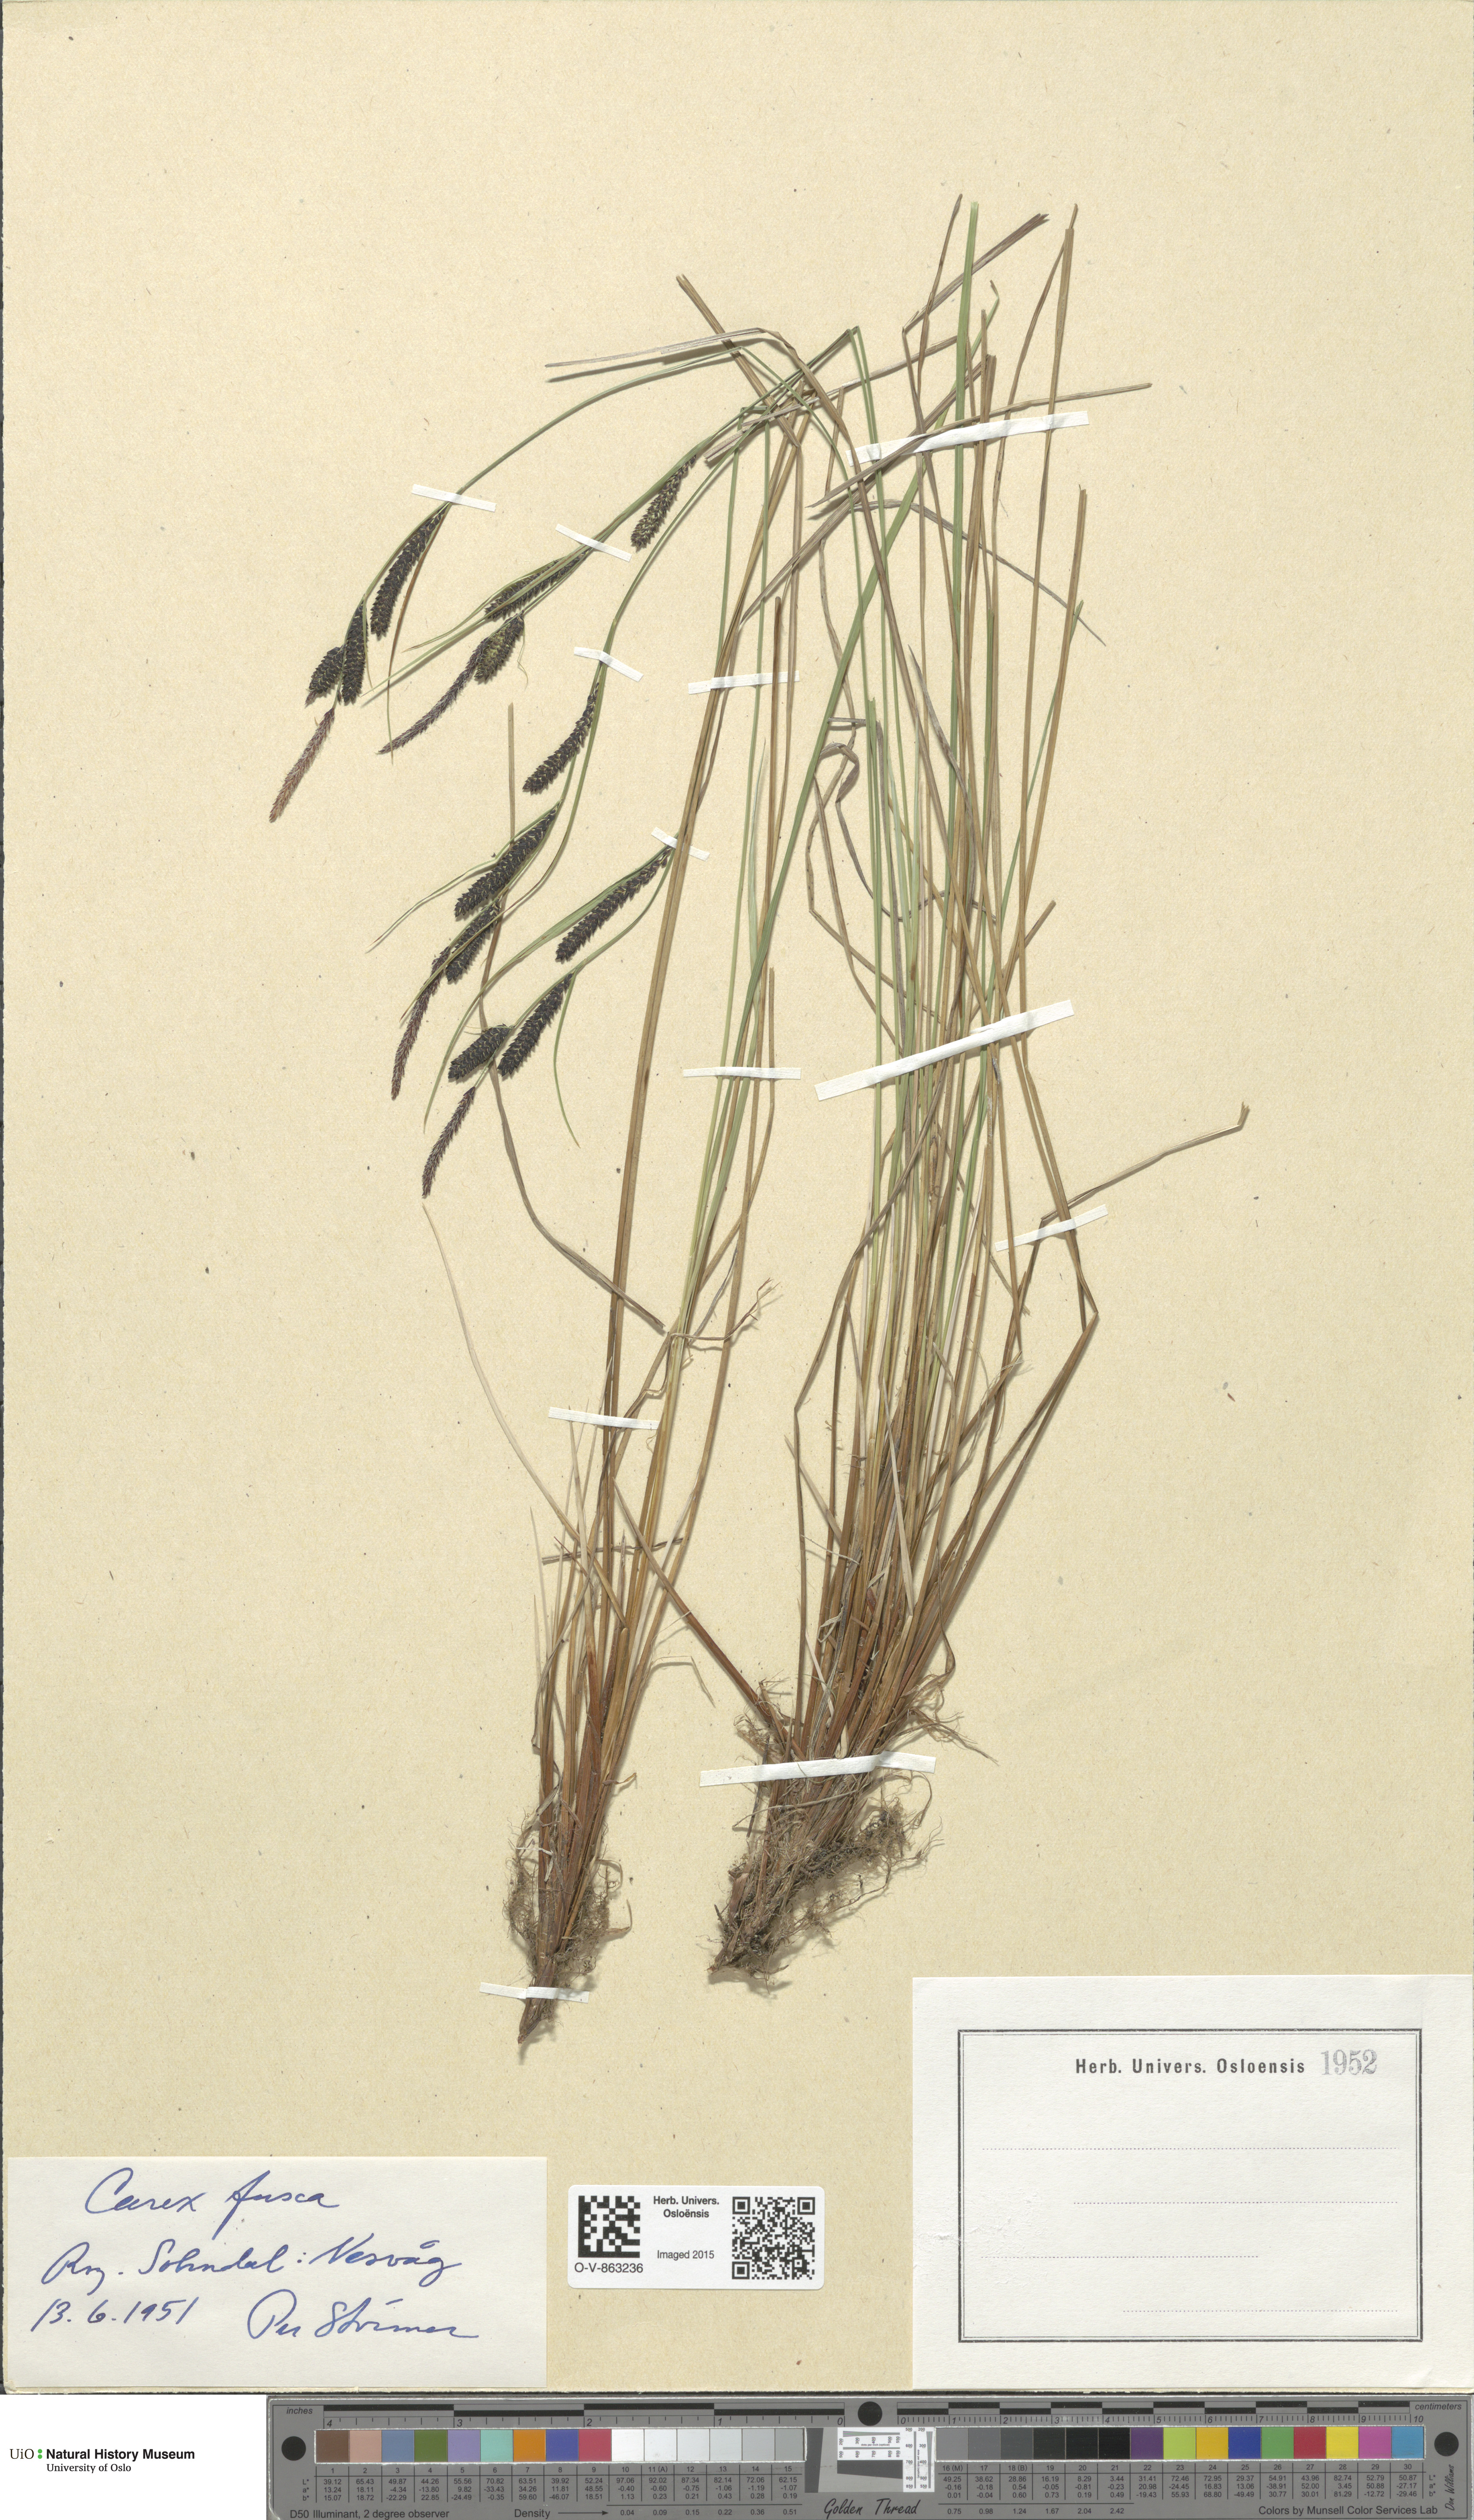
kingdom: Plantae
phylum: Tracheophyta
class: Liliopsida
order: Poales
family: Cyperaceae
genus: Carex
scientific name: Carex nigra
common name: Common sedge
